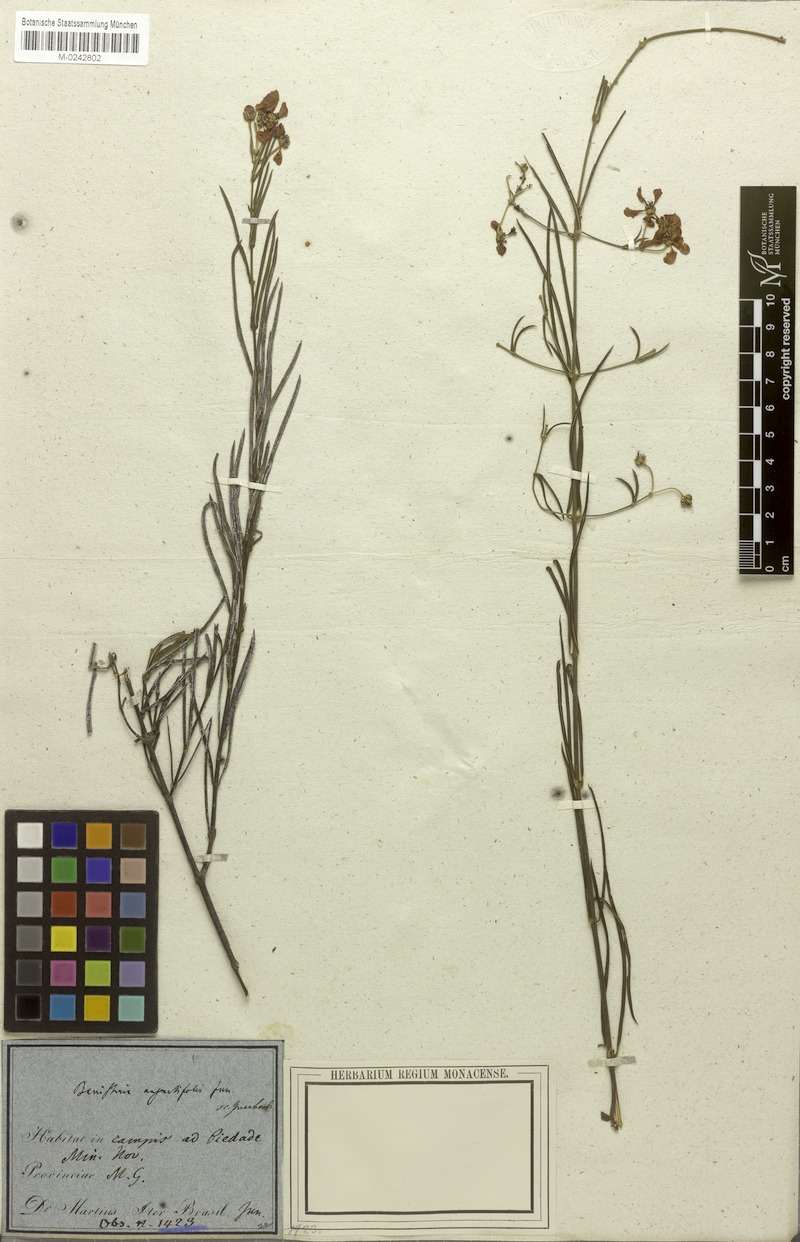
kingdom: Plantae
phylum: Tracheophyta
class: Magnoliopsida
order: Malpighiales
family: Malpighiaceae
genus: Banisteriopsis
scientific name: Banisteriopsis angustifolia
